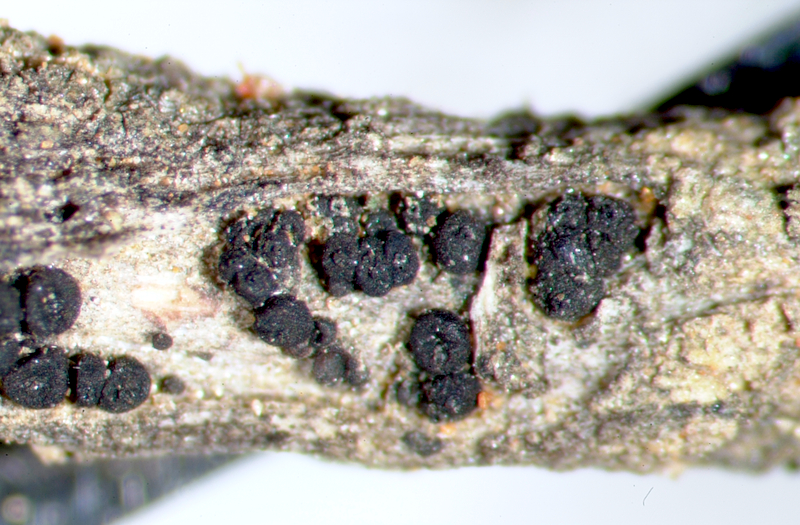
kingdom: Fungi
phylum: Ascomycota
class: Lecanoromycetes
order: Caliciales
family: Caliciaceae
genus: Buellia
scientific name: Buellia
